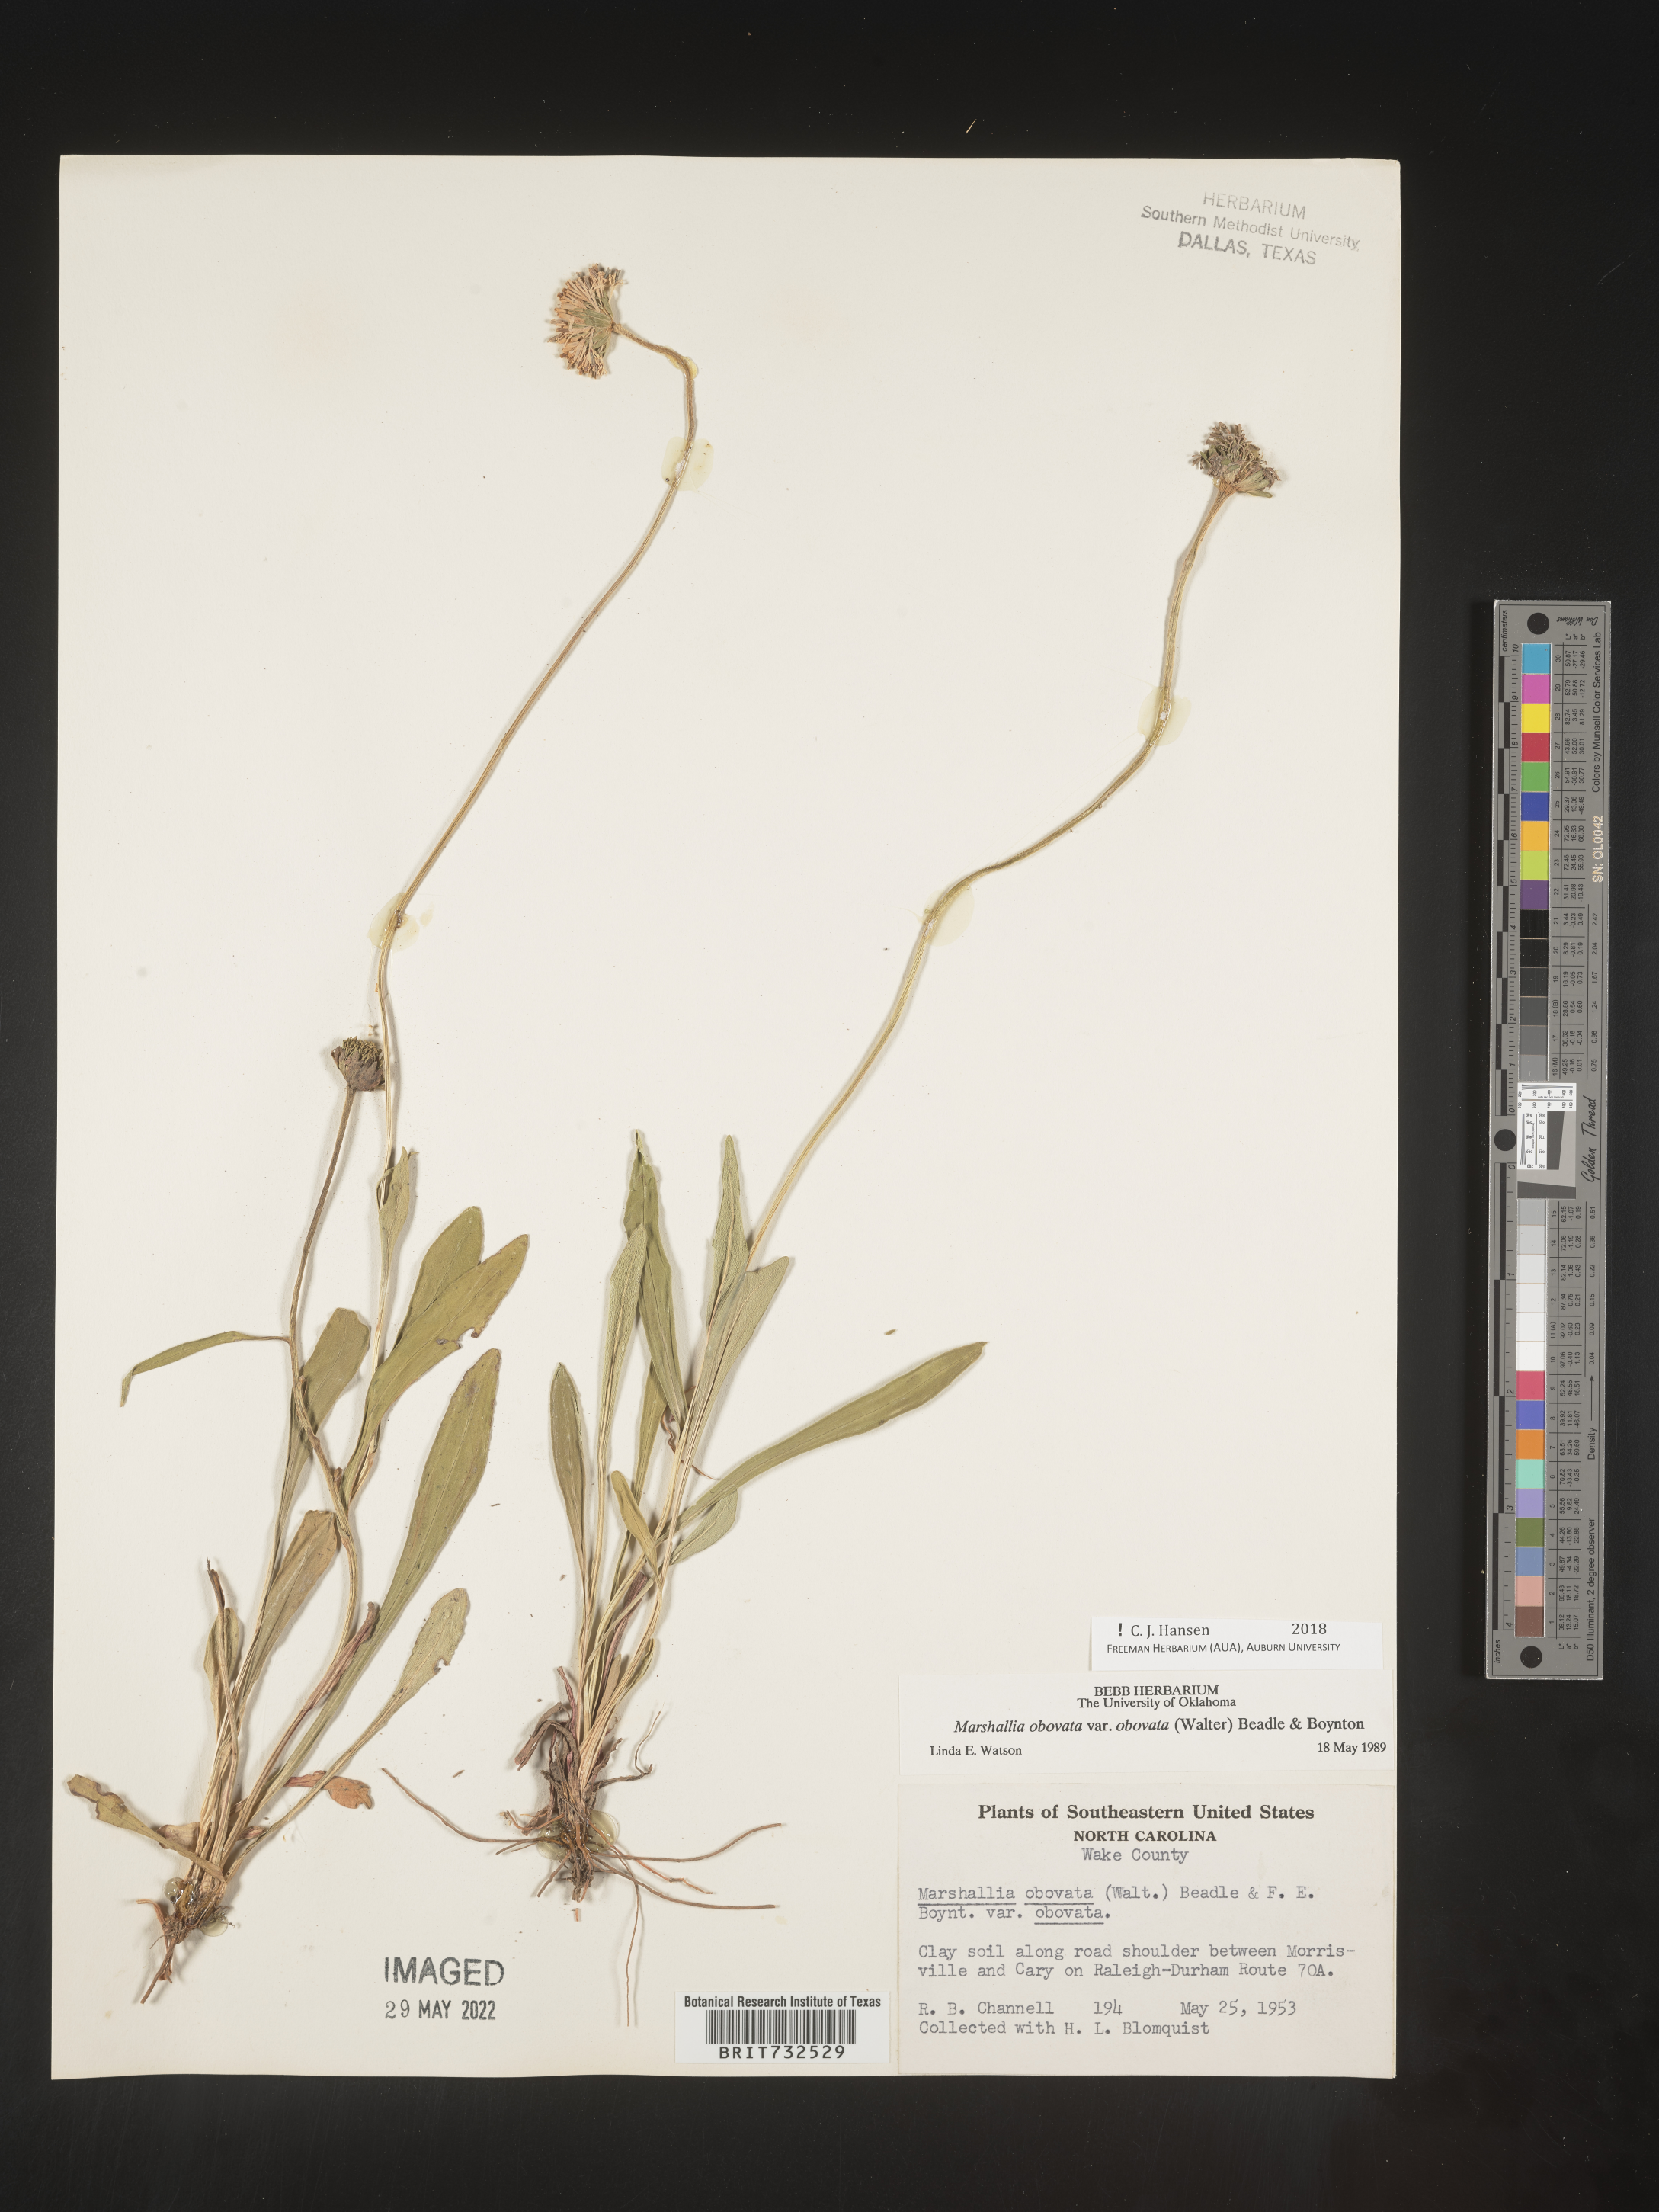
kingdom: Plantae
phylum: Tracheophyta
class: Magnoliopsida
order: Asterales
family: Asteraceae
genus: Marshallia
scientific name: Marshallia obovata
